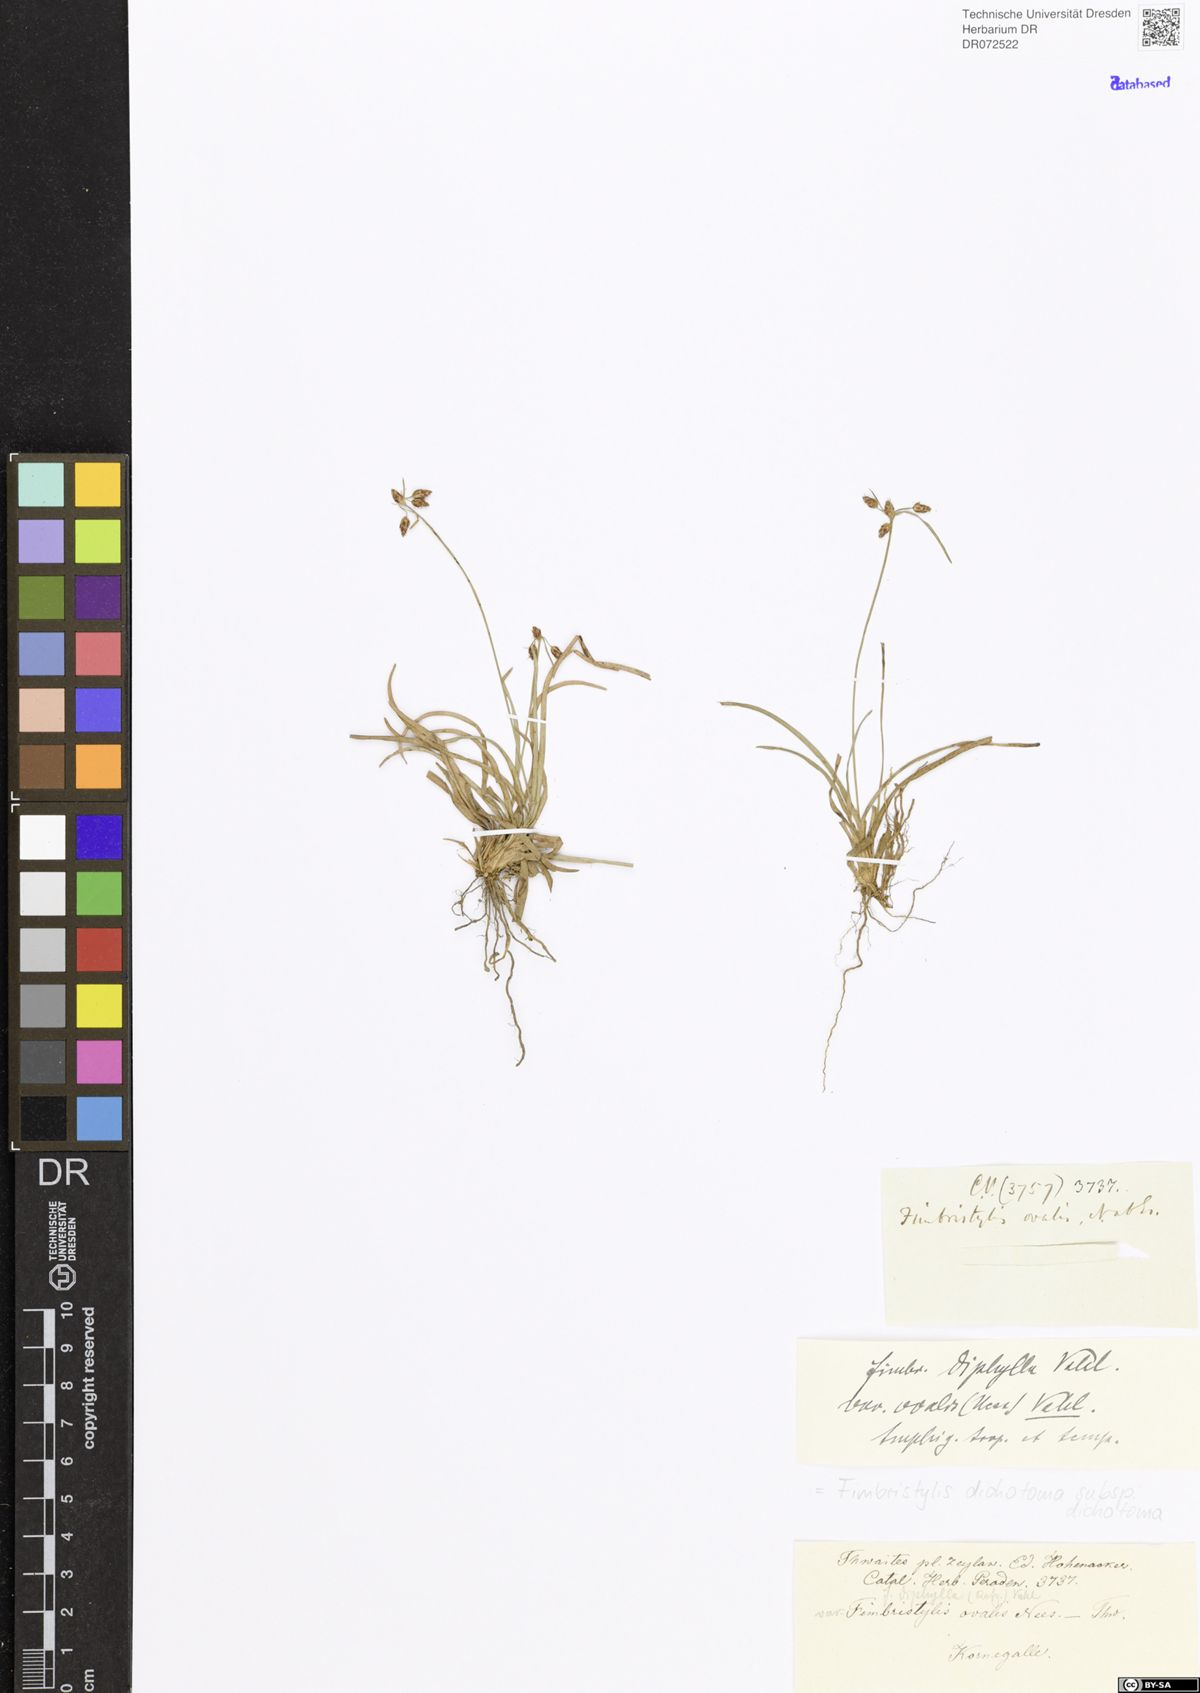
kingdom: Plantae
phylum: Tracheophyta
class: Liliopsida
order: Poales
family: Cyperaceae
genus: Fimbristylis
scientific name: Fimbristylis dichotoma
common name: Forked fimbry
